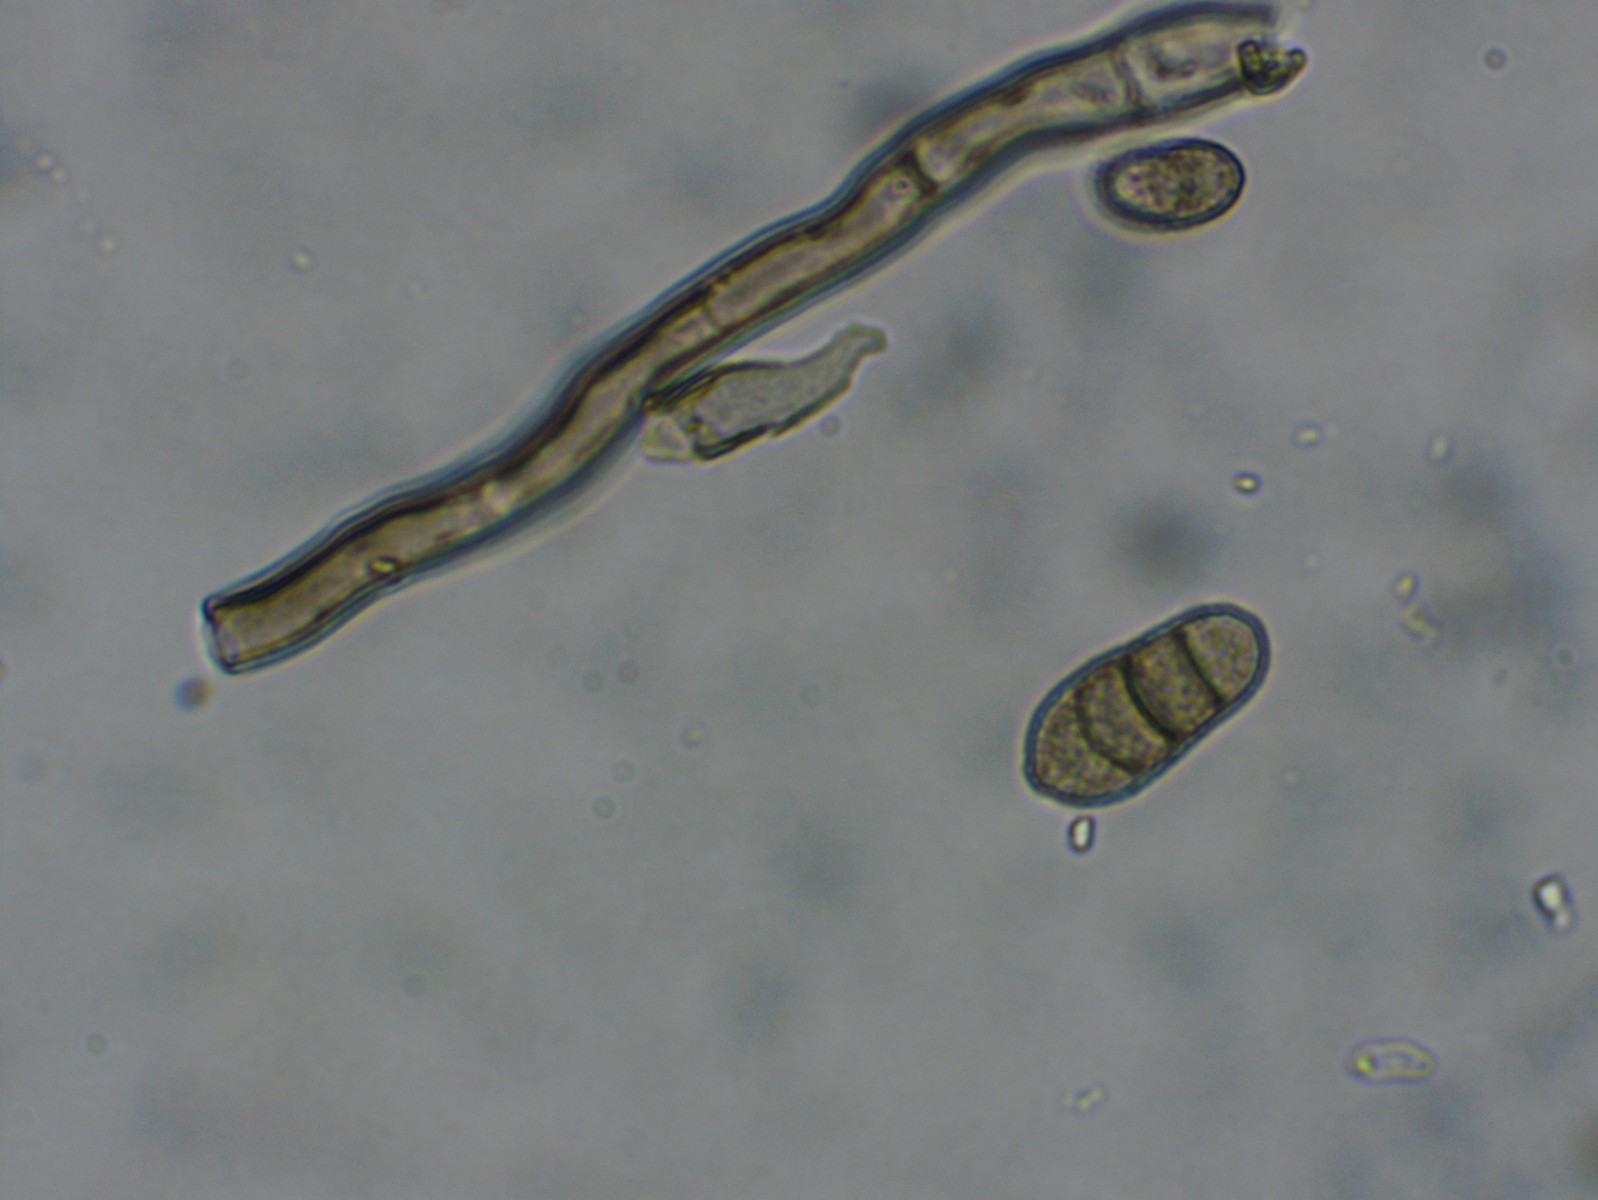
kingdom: Fungi
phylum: Ascomycota
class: Dothideomycetes
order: Capnodiales
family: Cladosporiaceae
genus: Cladosporium
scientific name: Cladosporium iridis
